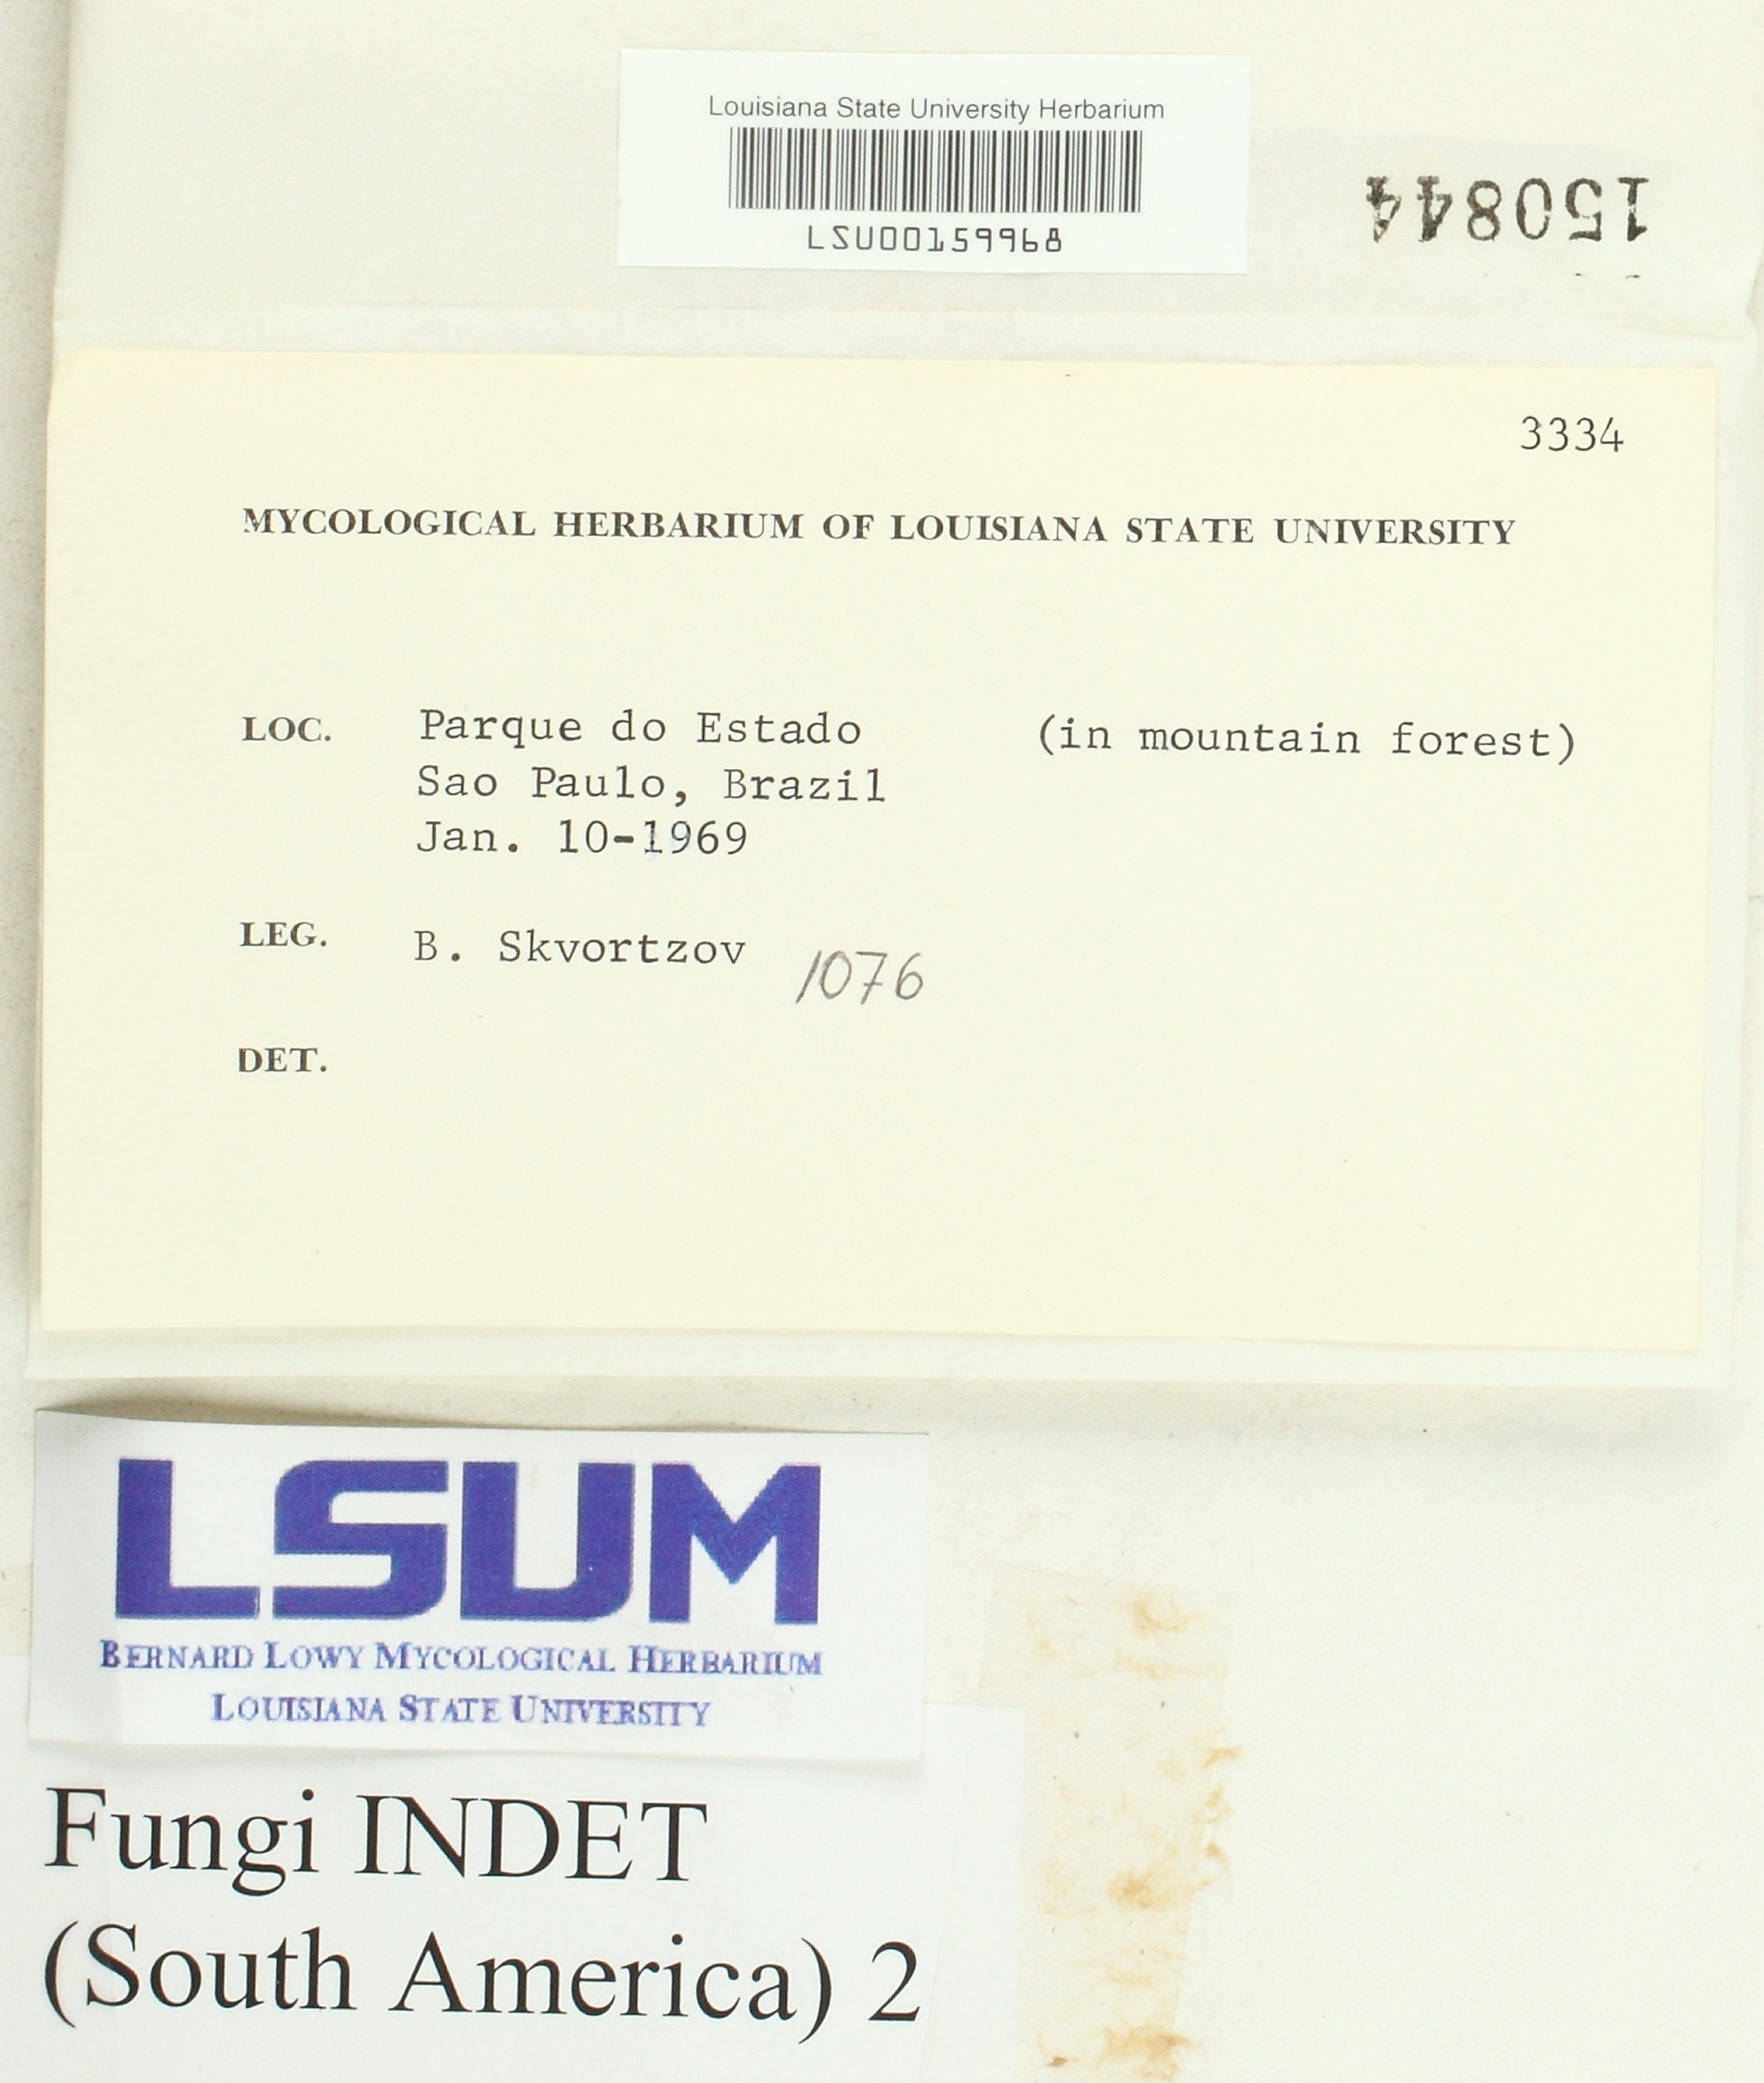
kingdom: Fungi
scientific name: Fungi
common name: Fungi
